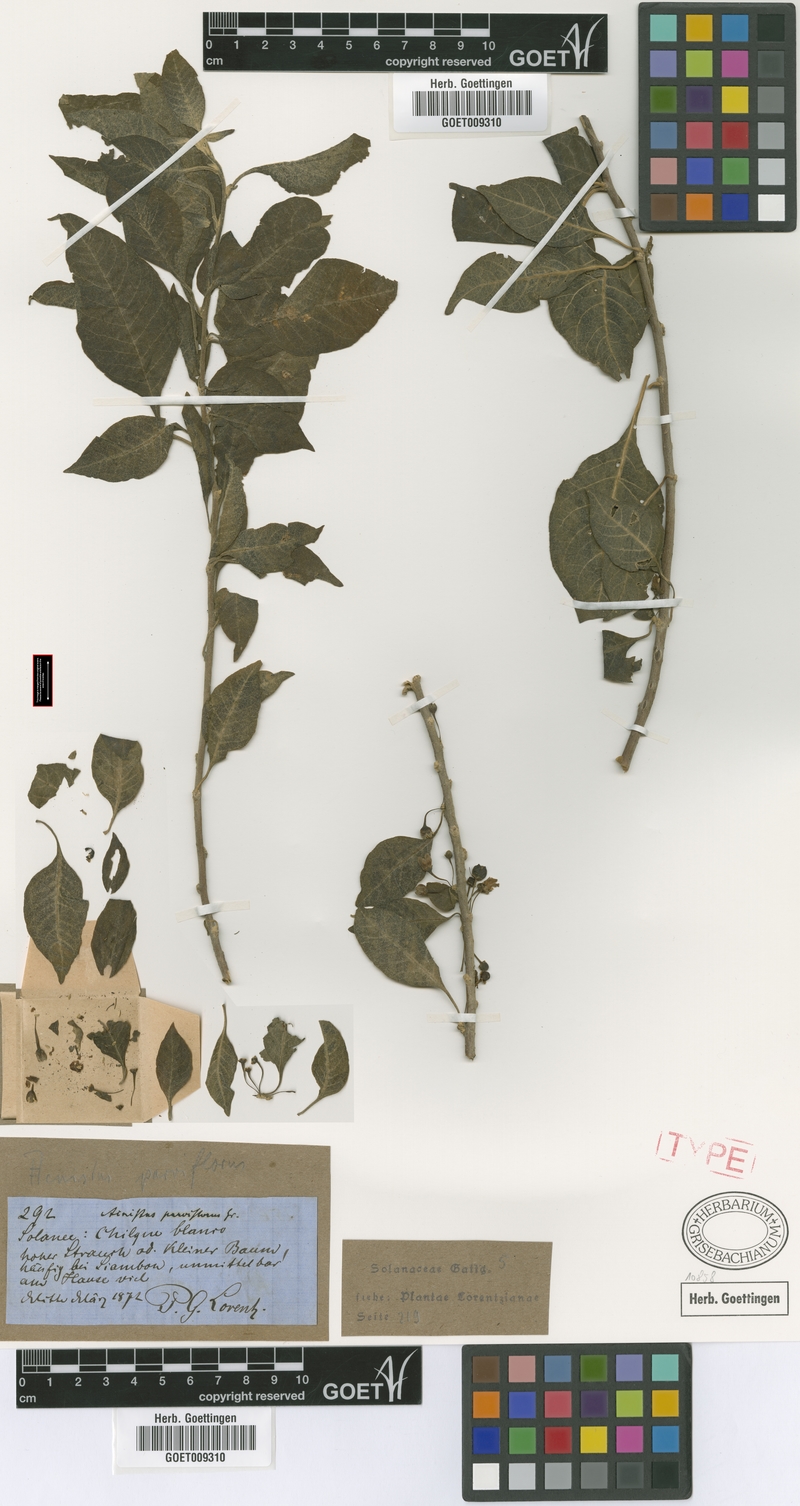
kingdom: Plantae
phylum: Tracheophyta
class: Magnoliopsida
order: Solanales
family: Solanaceae
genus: Vassobia
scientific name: Vassobia breviflora
